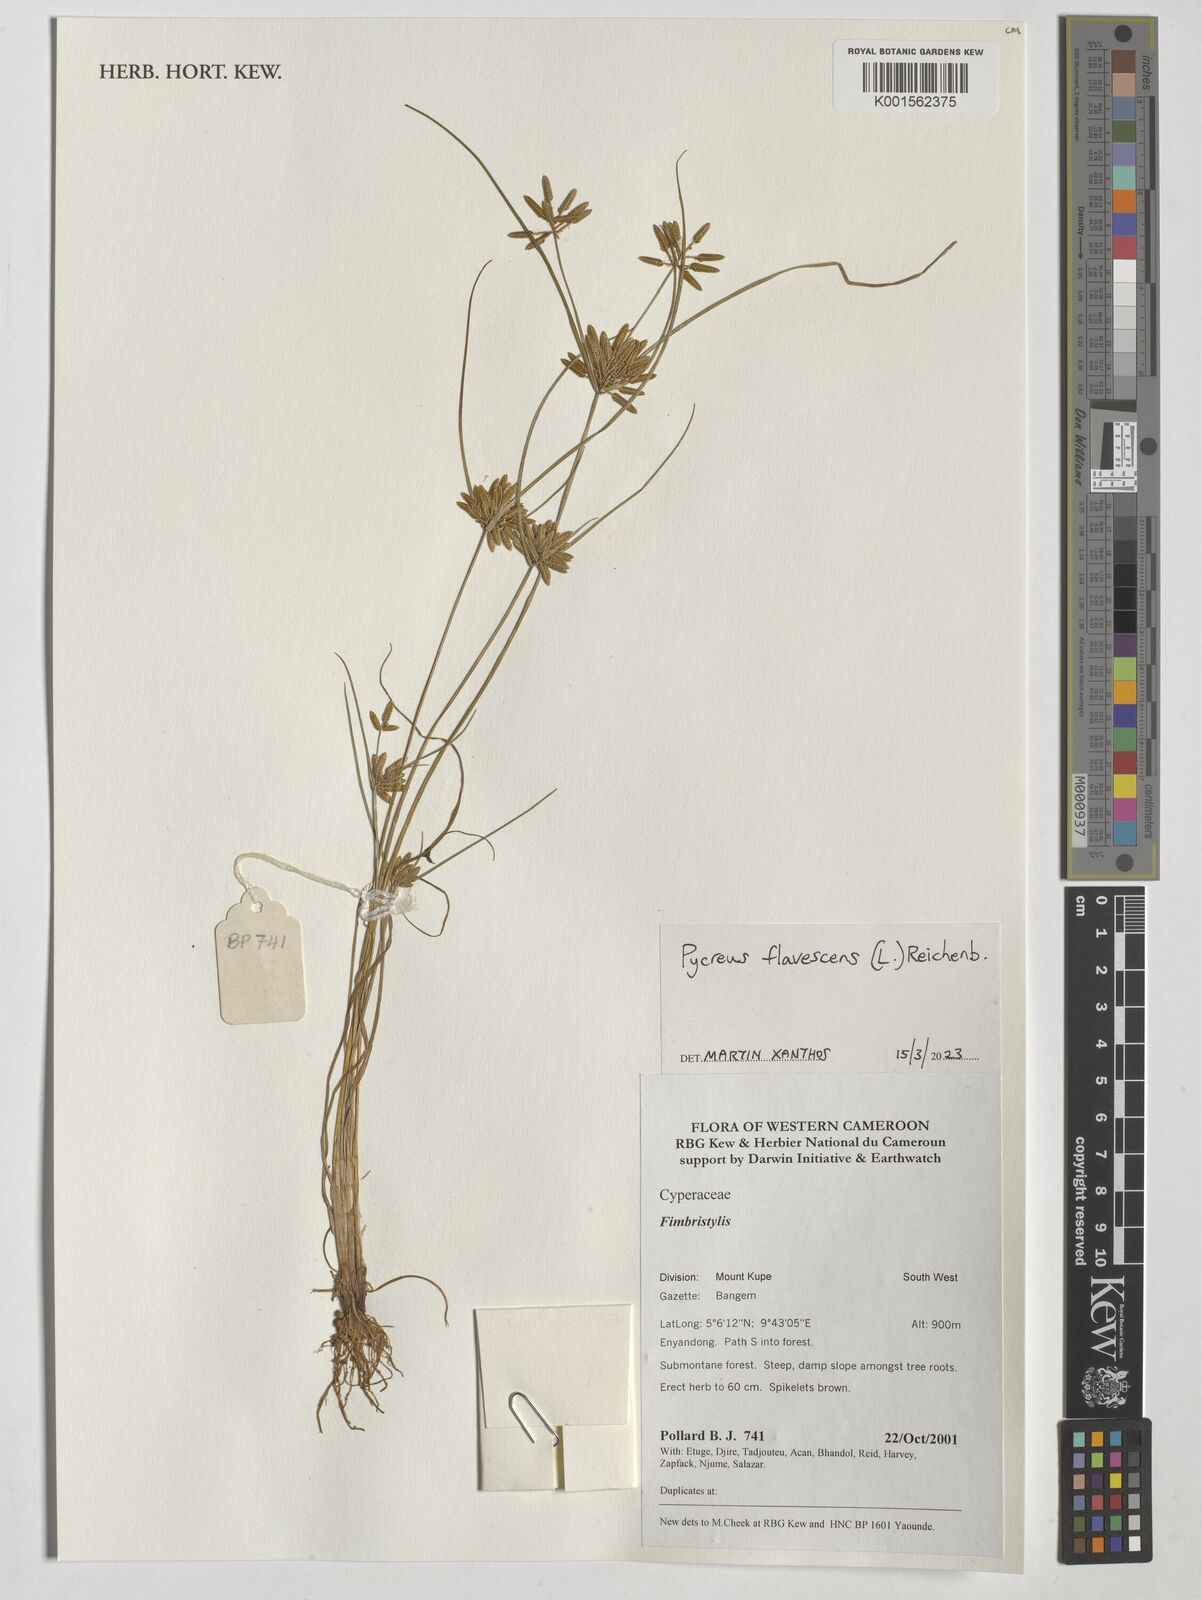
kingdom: Plantae
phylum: Tracheophyta
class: Liliopsida
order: Poales
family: Cyperaceae
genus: Cyperus
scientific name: Cyperus flavescens
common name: Yellow galingale
